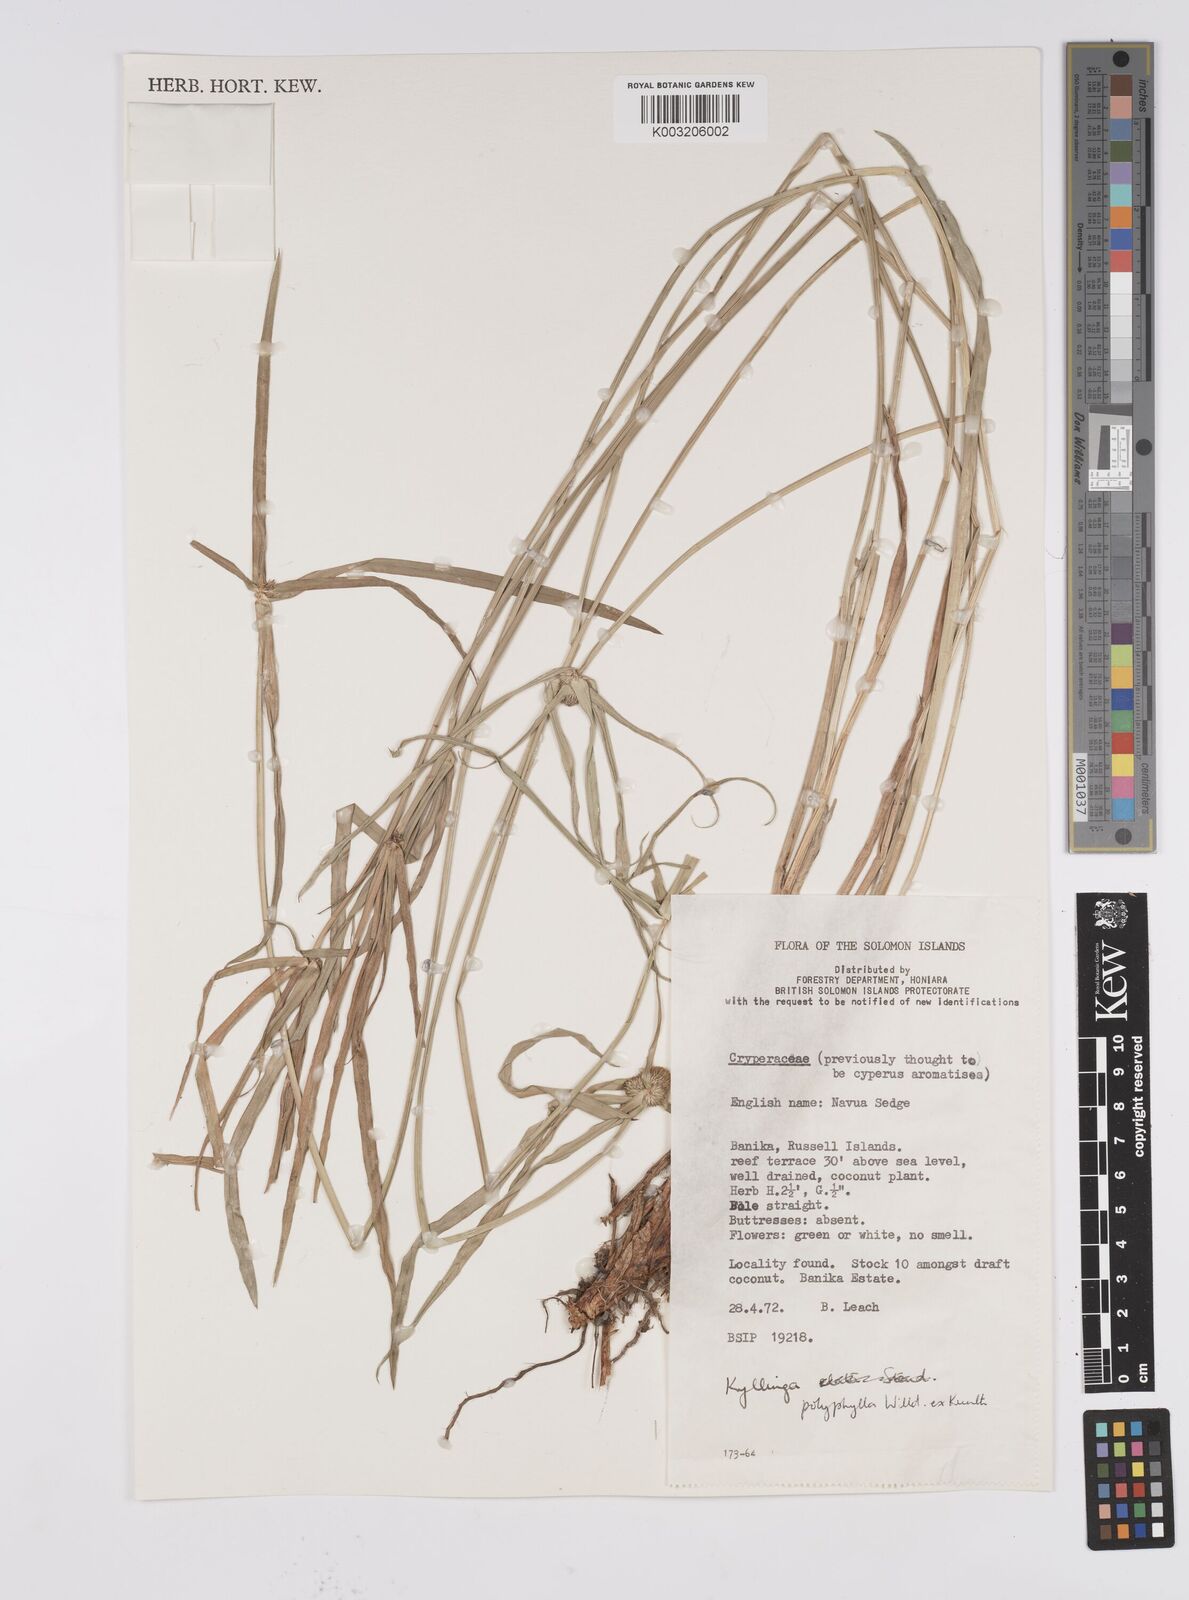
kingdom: Plantae
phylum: Tracheophyta
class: Liliopsida
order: Poales
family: Cyperaceae
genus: Cyperus
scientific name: Cyperus bulbosus
